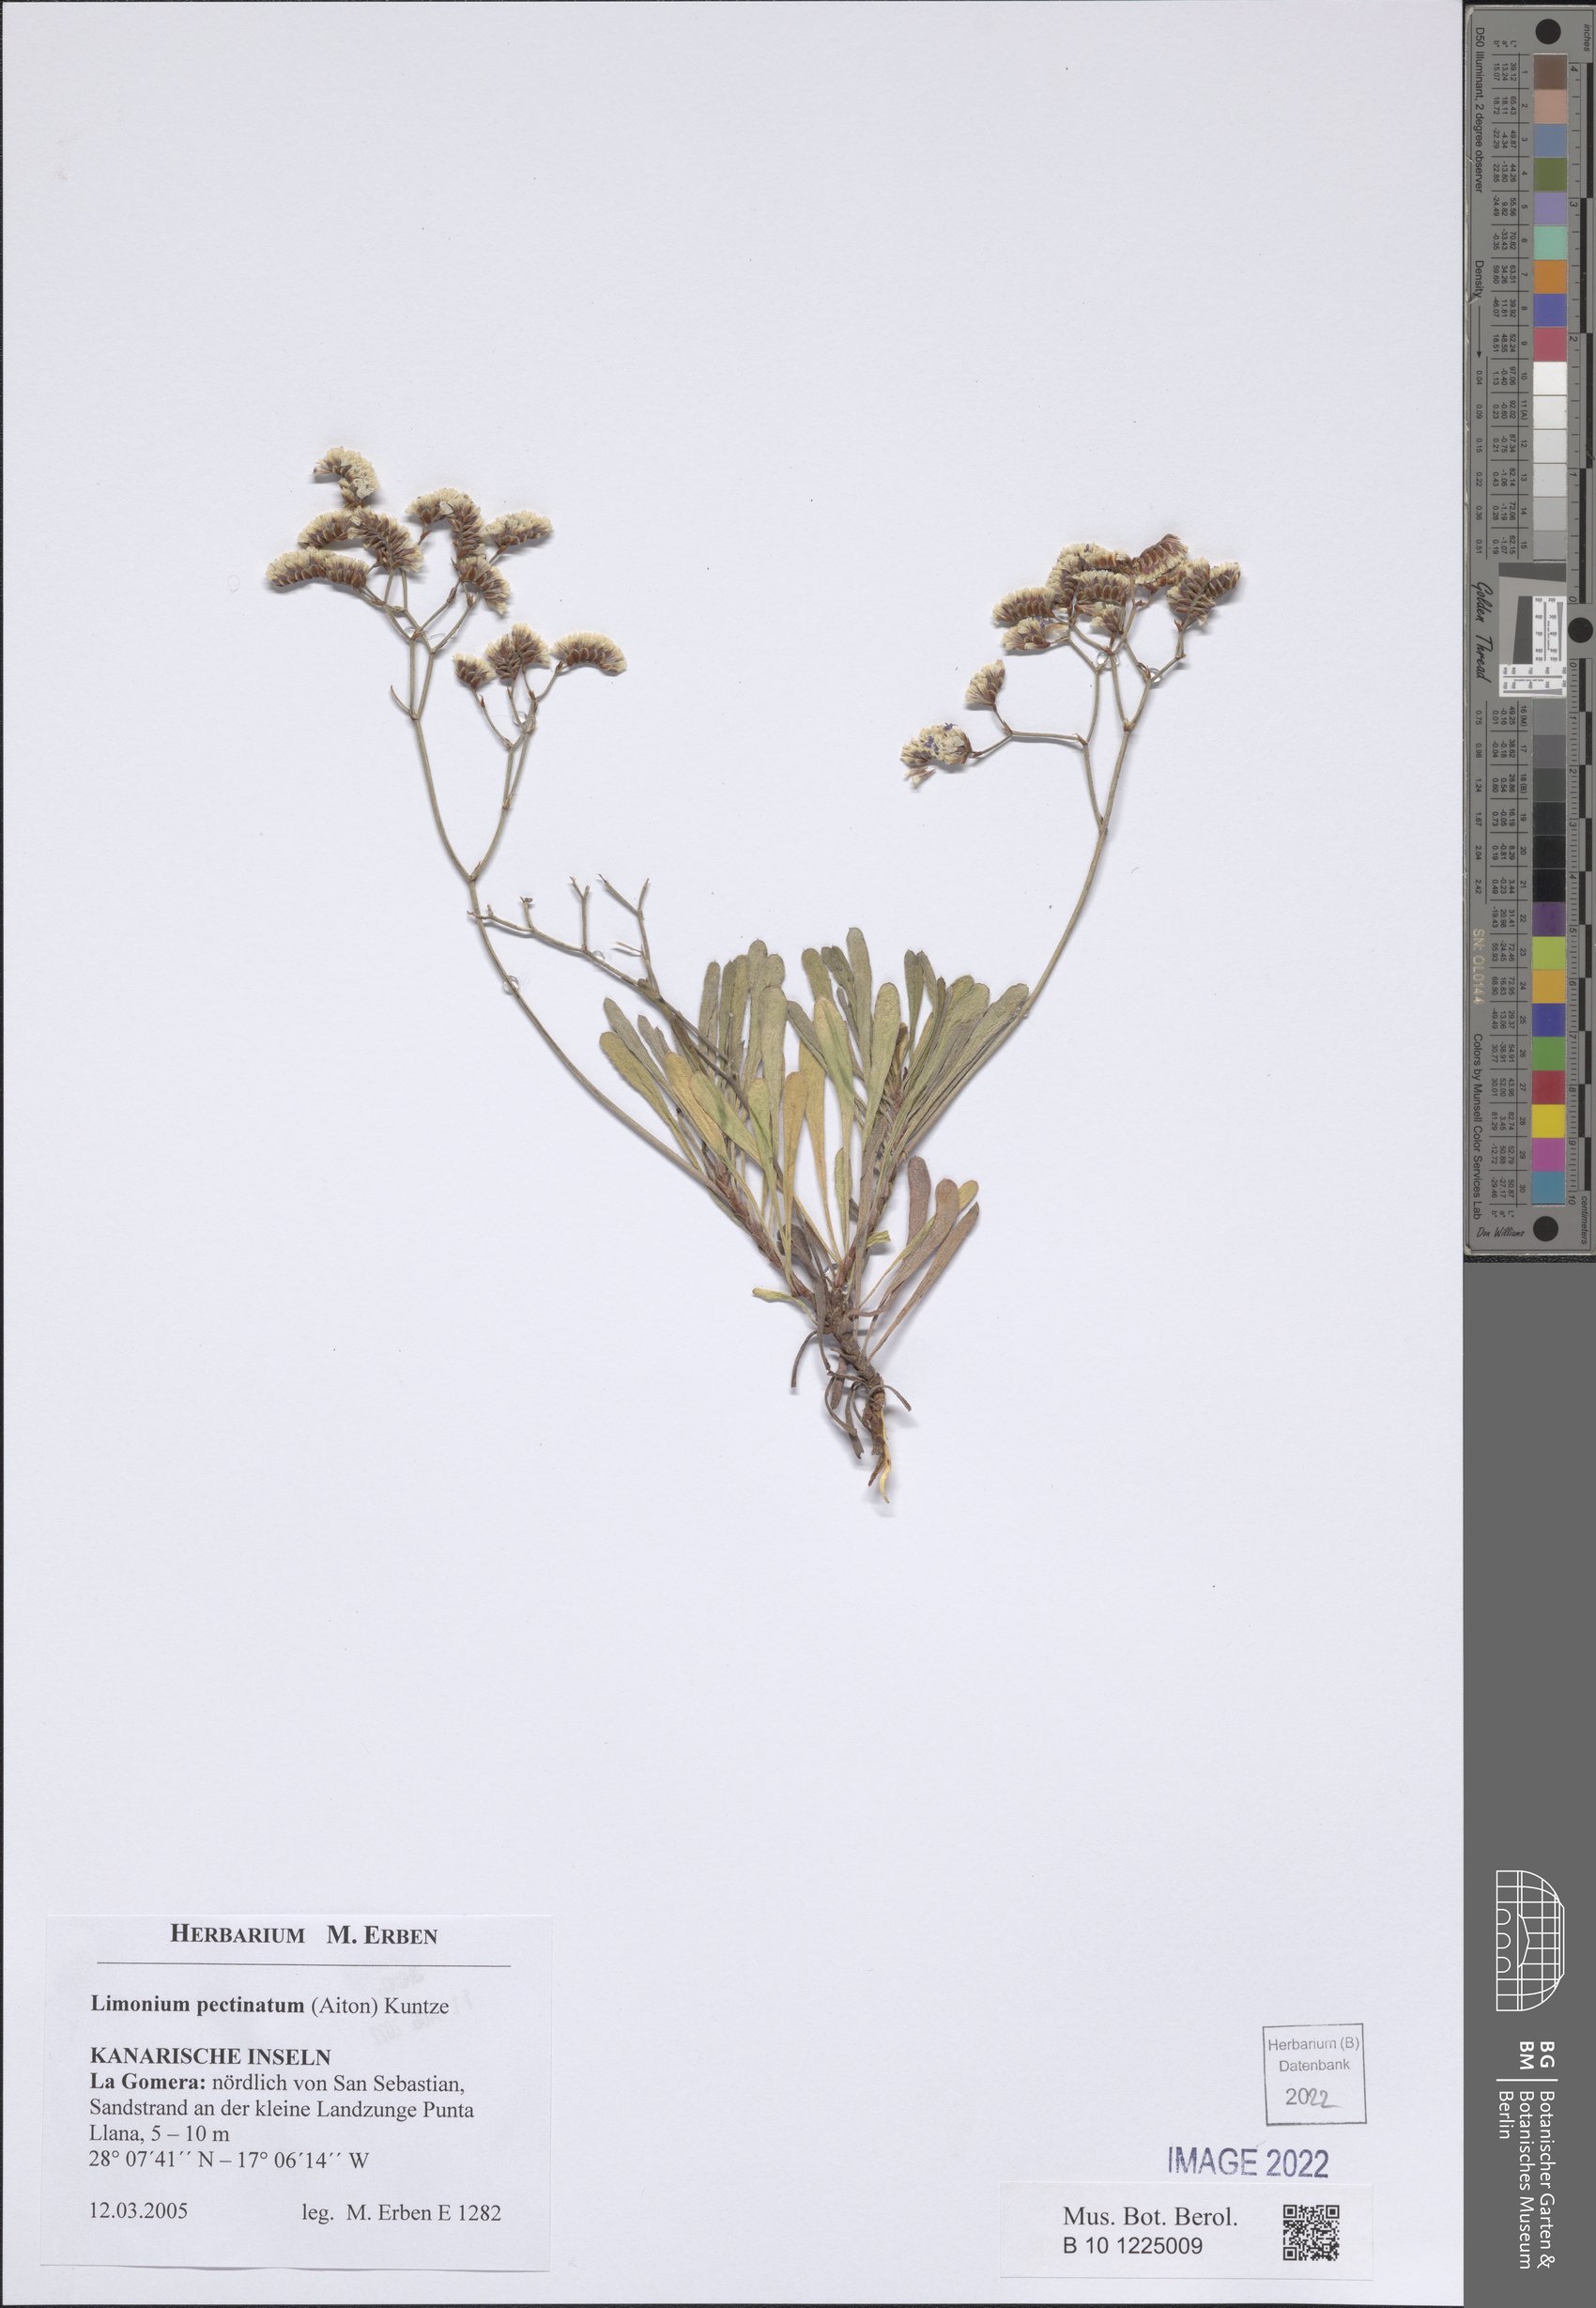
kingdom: Plantae
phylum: Tracheophyta
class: Magnoliopsida
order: Caryophyllales
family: Plumbaginaceae
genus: Limonium
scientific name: Limonium pectinatum
